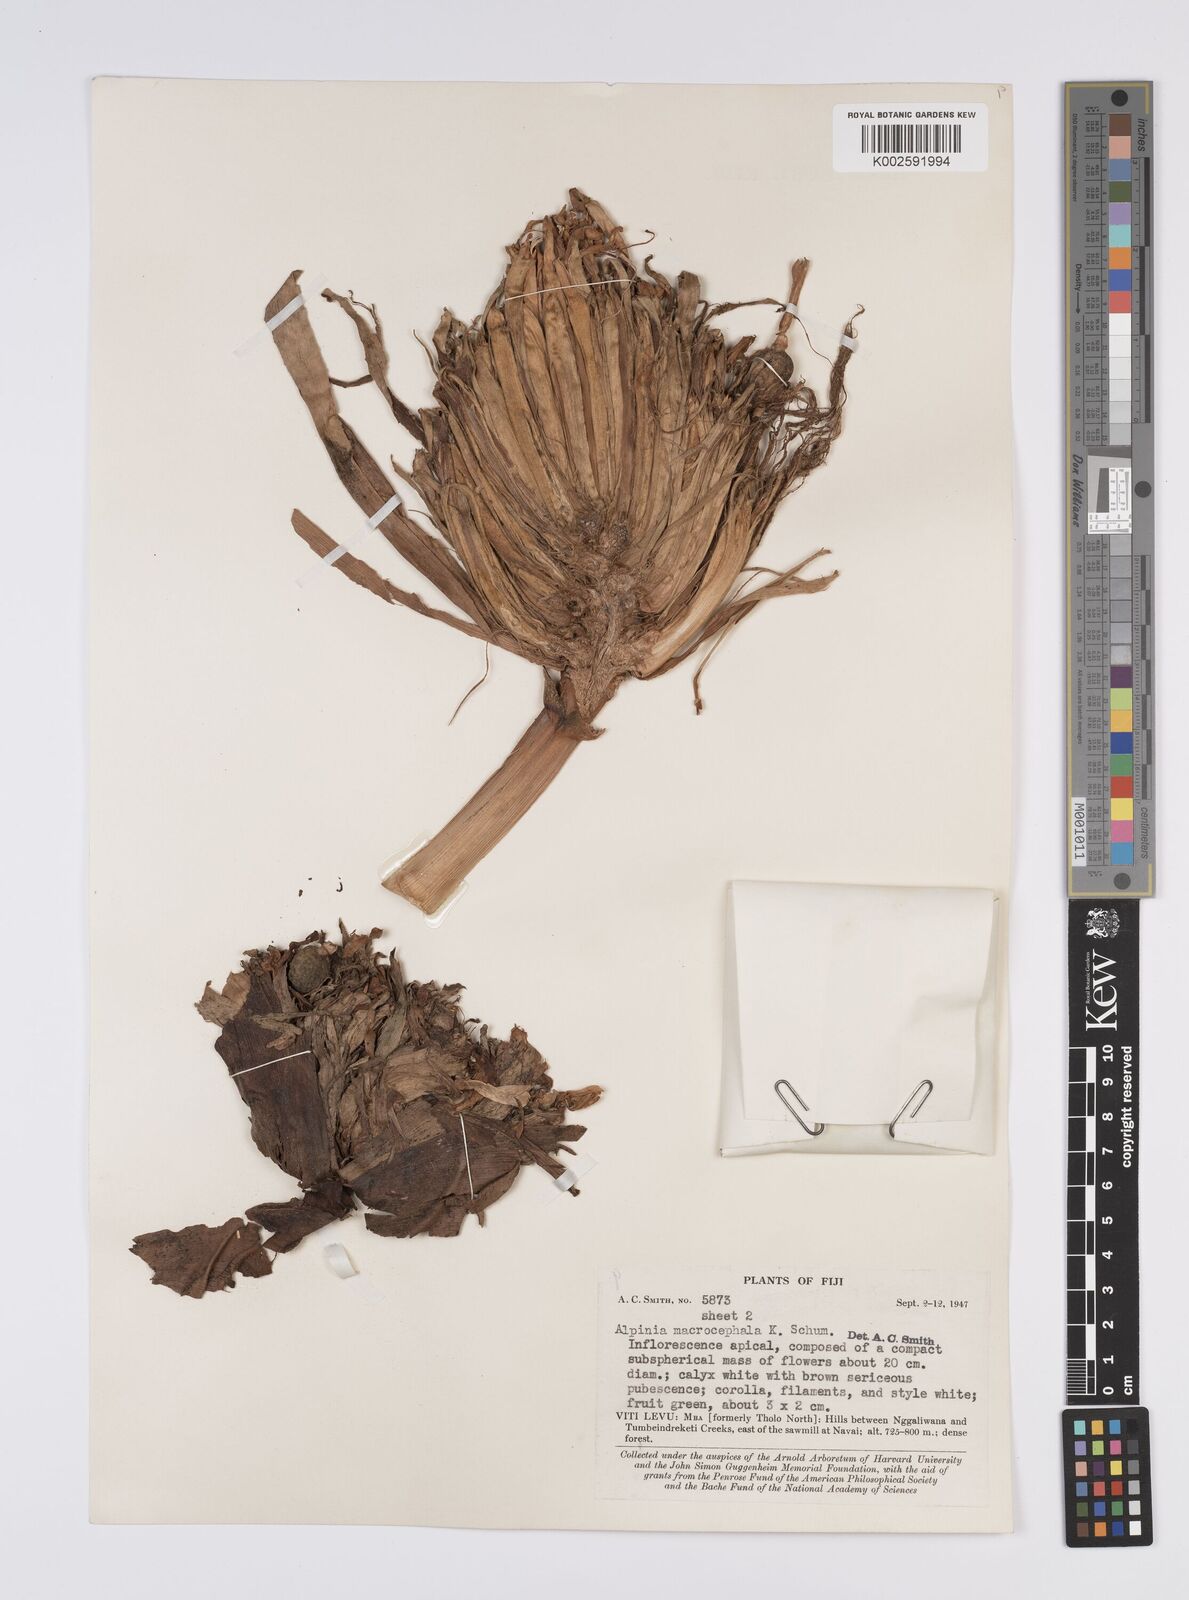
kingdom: Plantae
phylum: Tracheophyta
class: Liliopsida
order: Zingiberales
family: Zingiberaceae
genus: Alpinia
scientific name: Alpinia macrocephala
